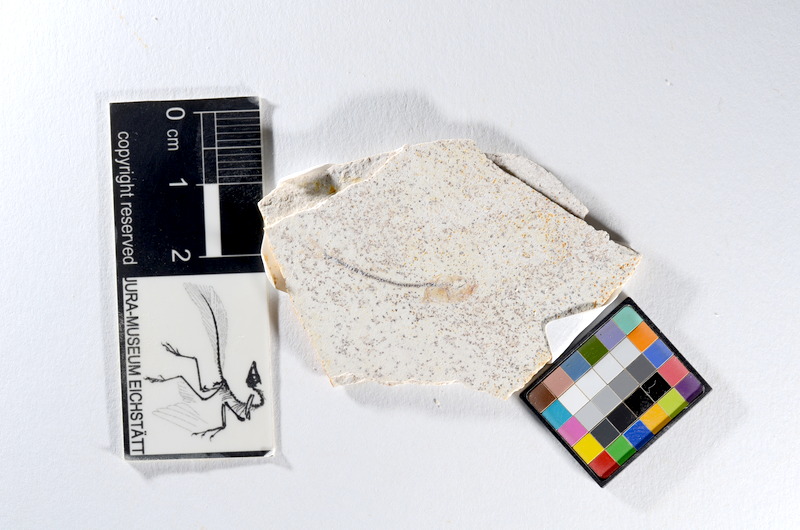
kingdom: Animalia
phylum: Chordata
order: Salmoniformes
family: Orthogonikleithridae
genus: Orthogonikleithrus
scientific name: Orthogonikleithrus hoelli
